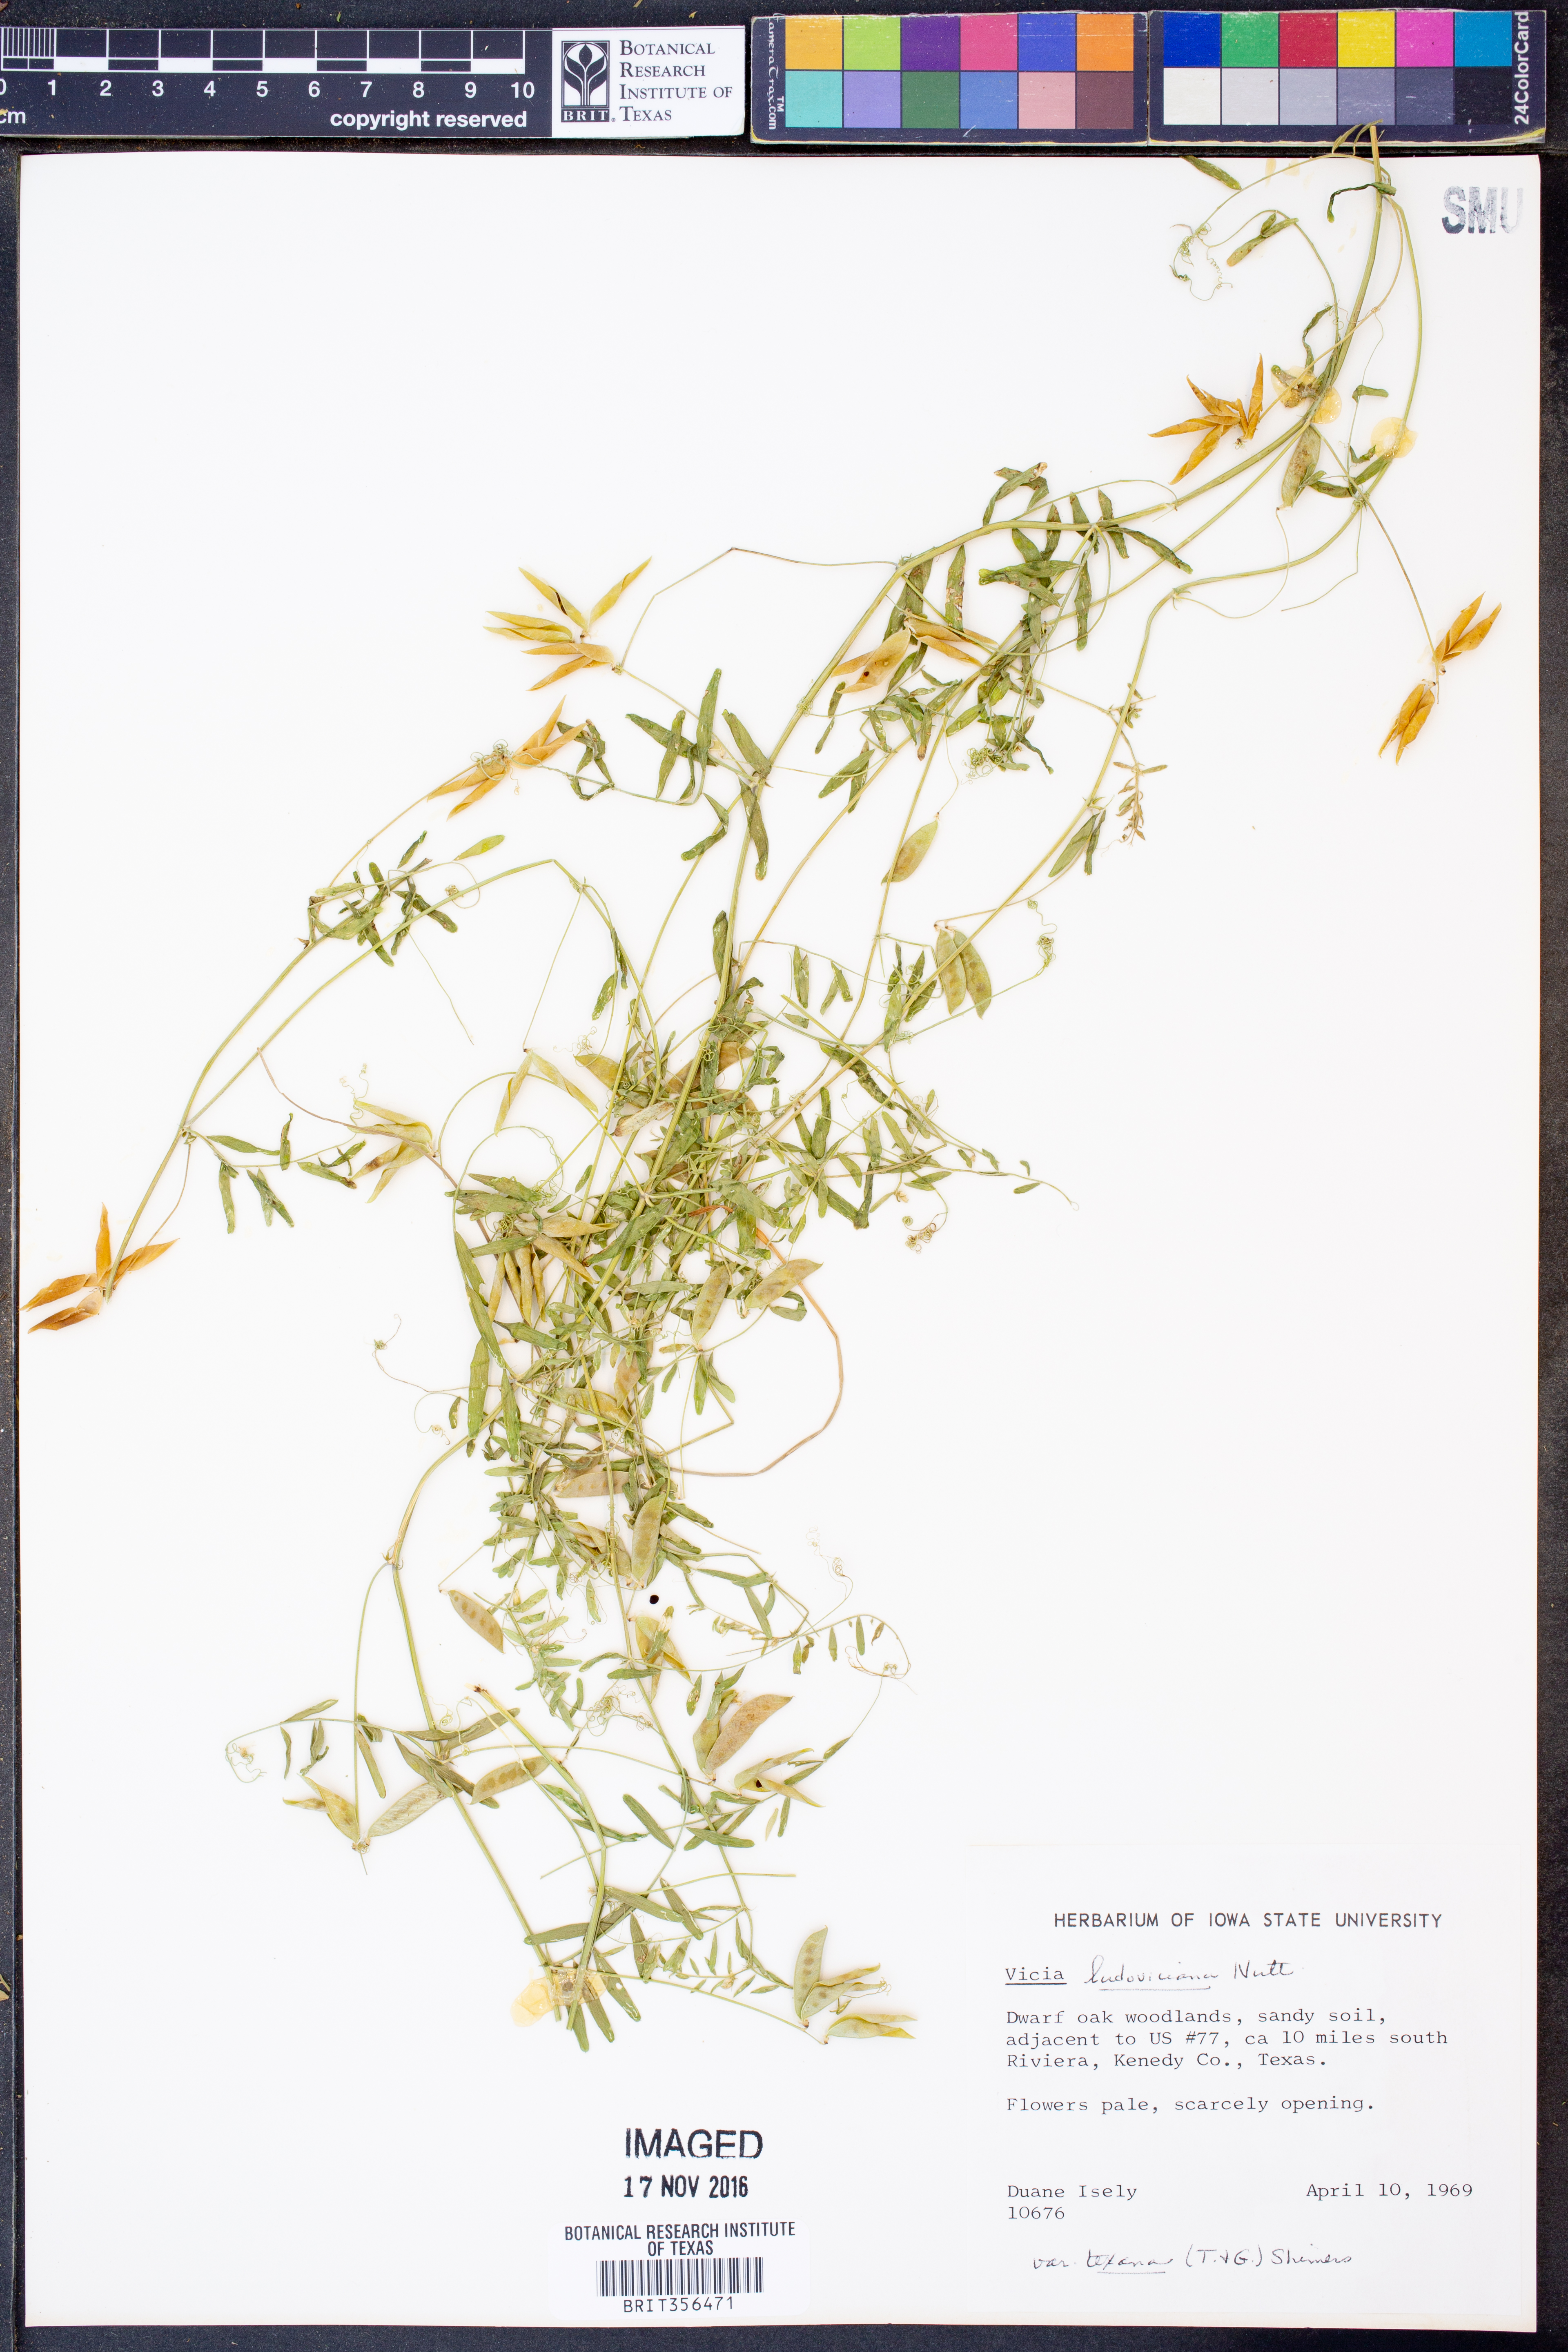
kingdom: Plantae
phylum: Tracheophyta
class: Magnoliopsida
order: Fabales
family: Fabaceae
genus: Vicia
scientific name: Vicia ludoviciana
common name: Louisiana vetch
